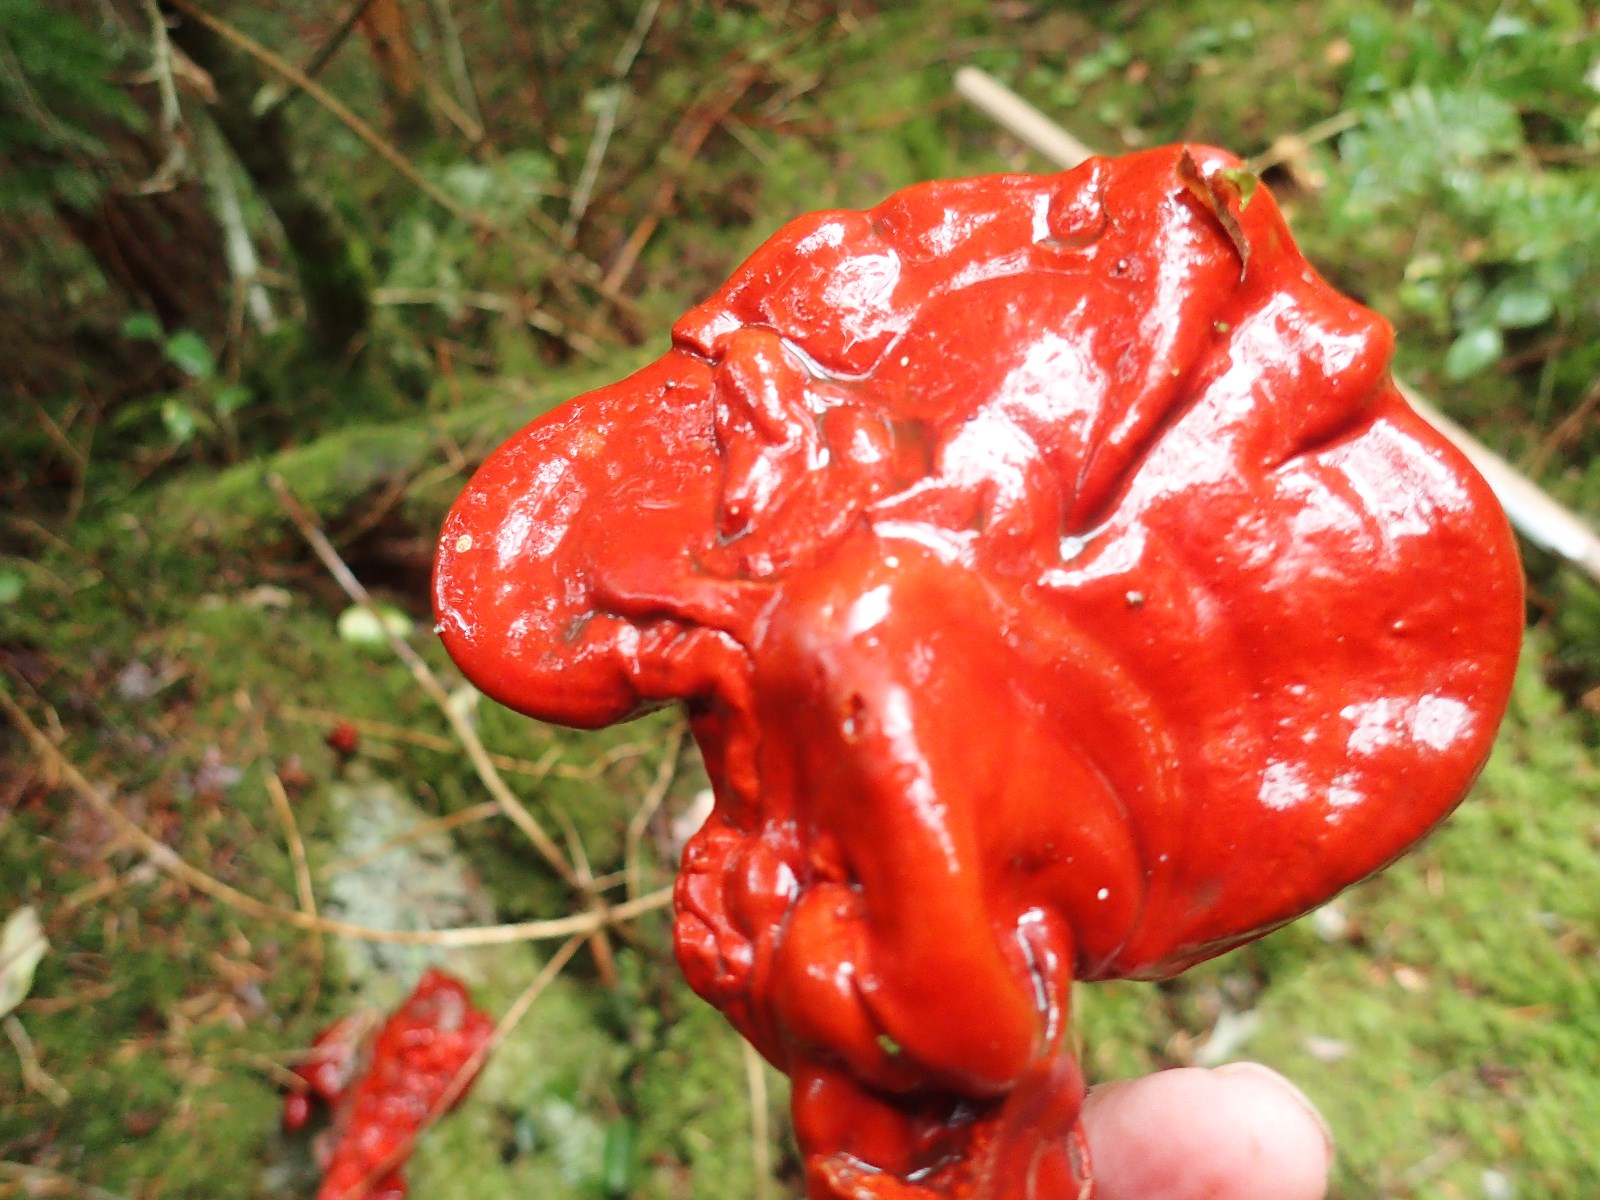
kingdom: Fungi
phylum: Basidiomycota
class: Agaricomycetes
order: Polyporales
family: Polyporaceae
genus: Ganoderma
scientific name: Ganoderma lucidum
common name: skinnende lakporesvamp
